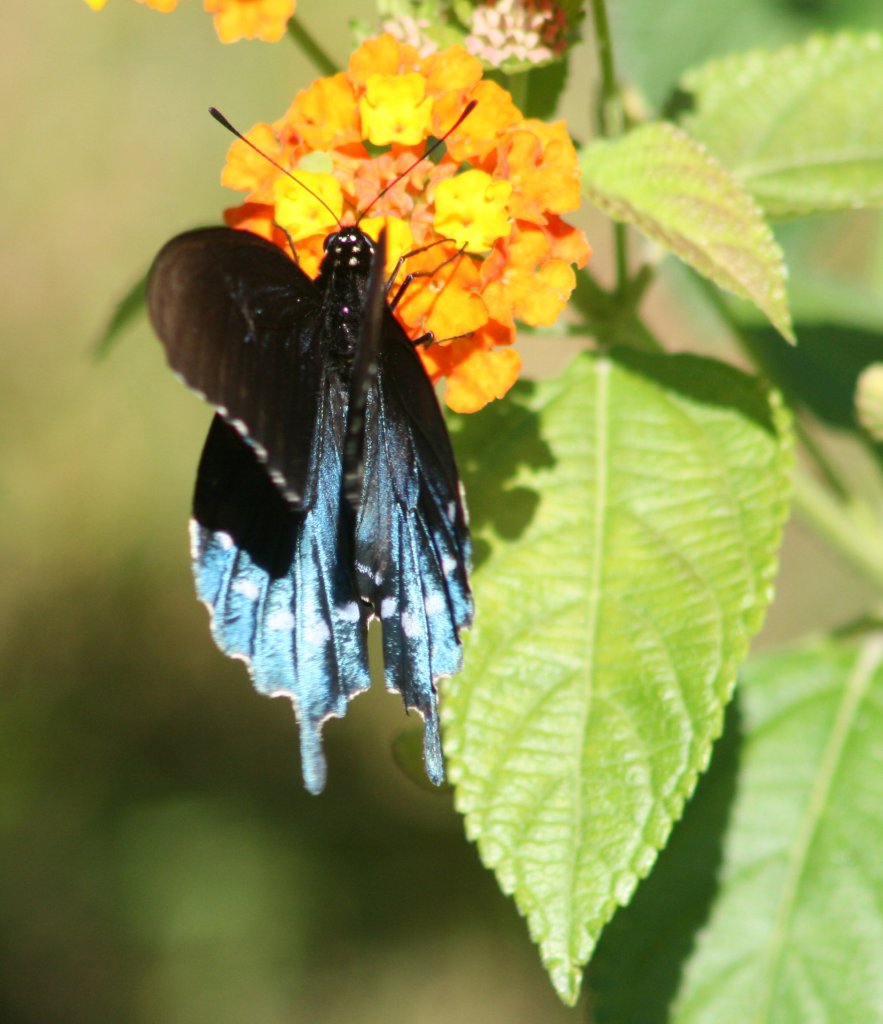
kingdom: Animalia
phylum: Arthropoda
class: Insecta
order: Lepidoptera
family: Papilionidae
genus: Battus
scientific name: Battus philenor
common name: Pipevine Swallowtail
